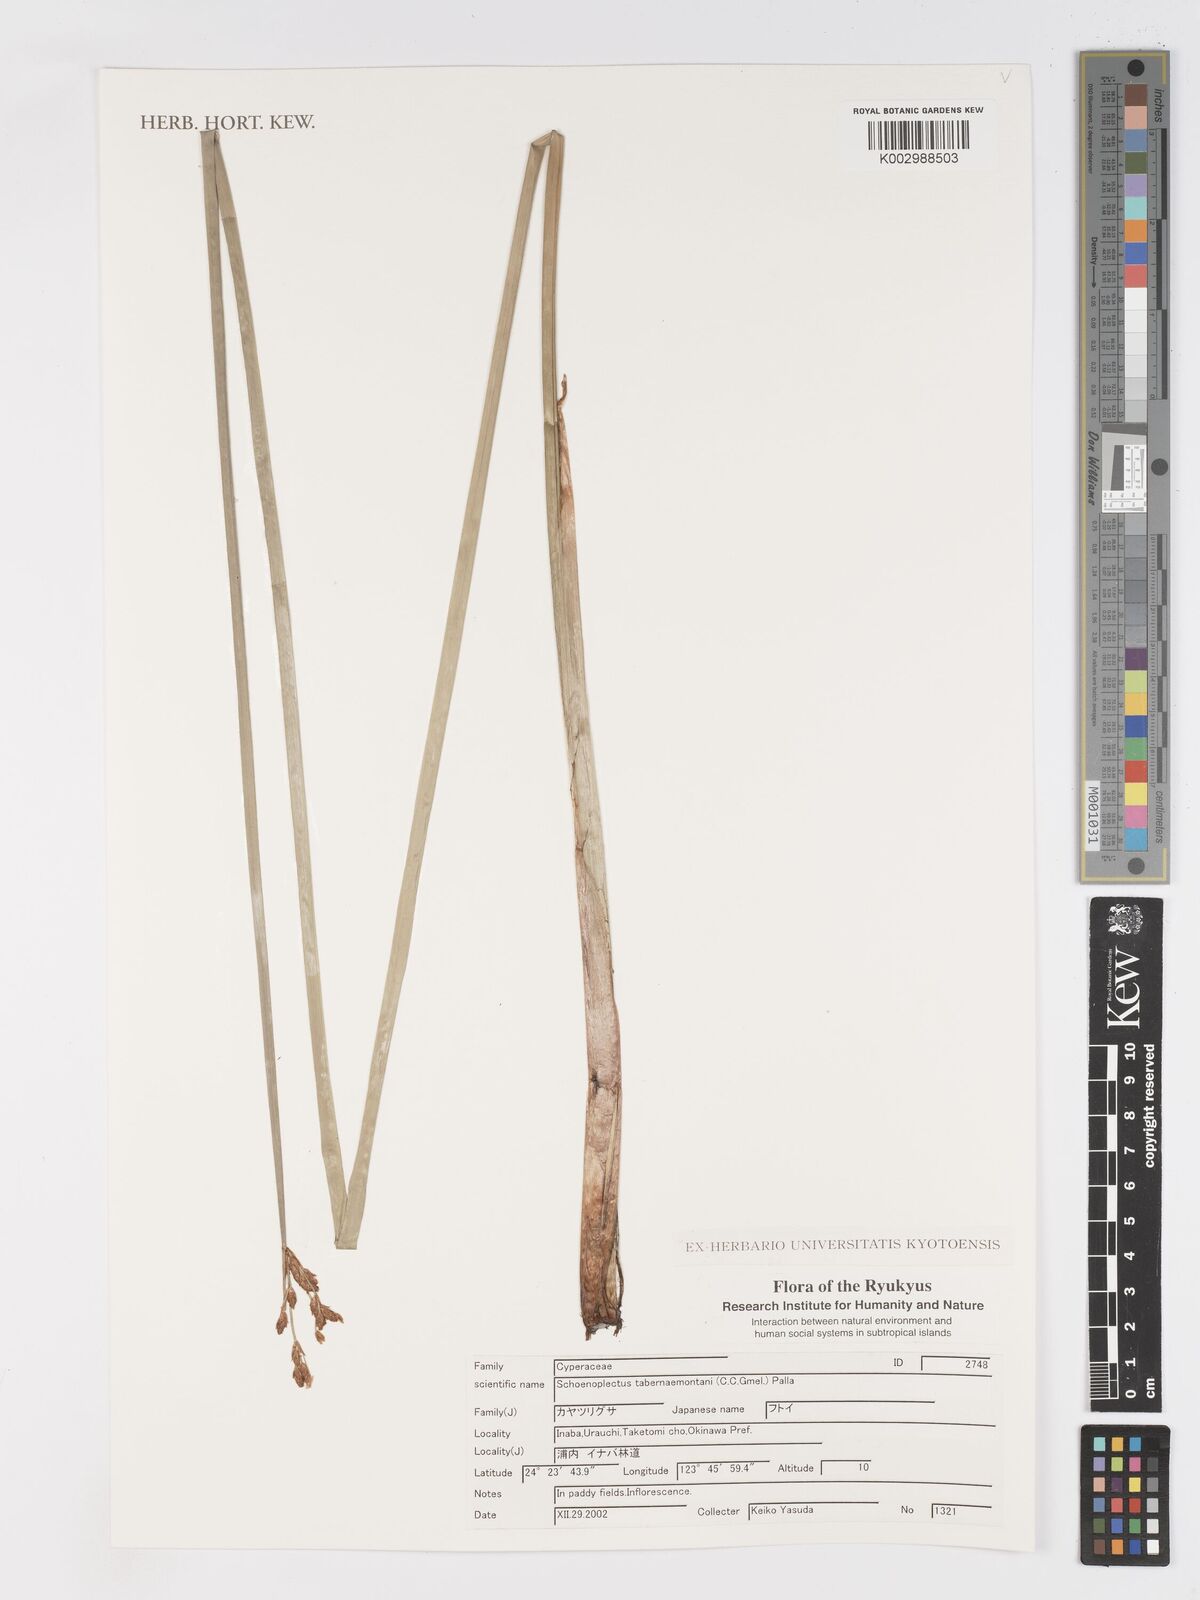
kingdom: Plantae
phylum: Tracheophyta
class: Liliopsida
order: Poales
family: Cyperaceae
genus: Schoenoplectus
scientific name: Schoenoplectus tabernaemontani
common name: Grey club-rush
